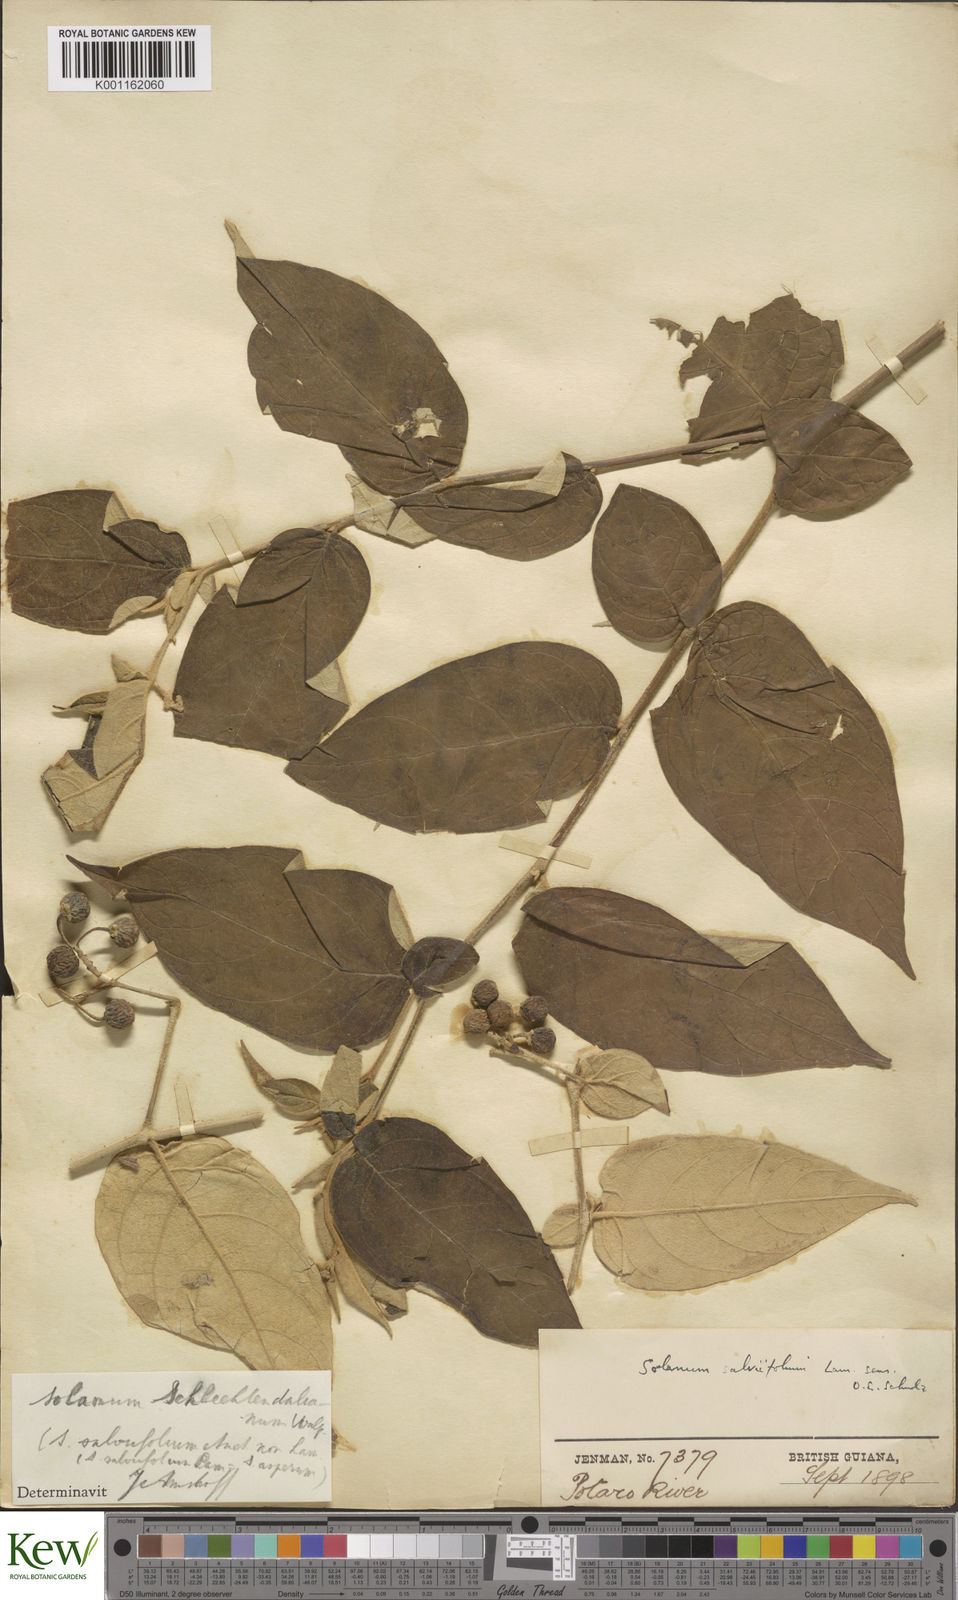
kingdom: Plantae
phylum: Tracheophyta
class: Magnoliopsida
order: Solanales
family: Solanaceae
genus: Solanum
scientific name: Solanum schlechtendalianum
